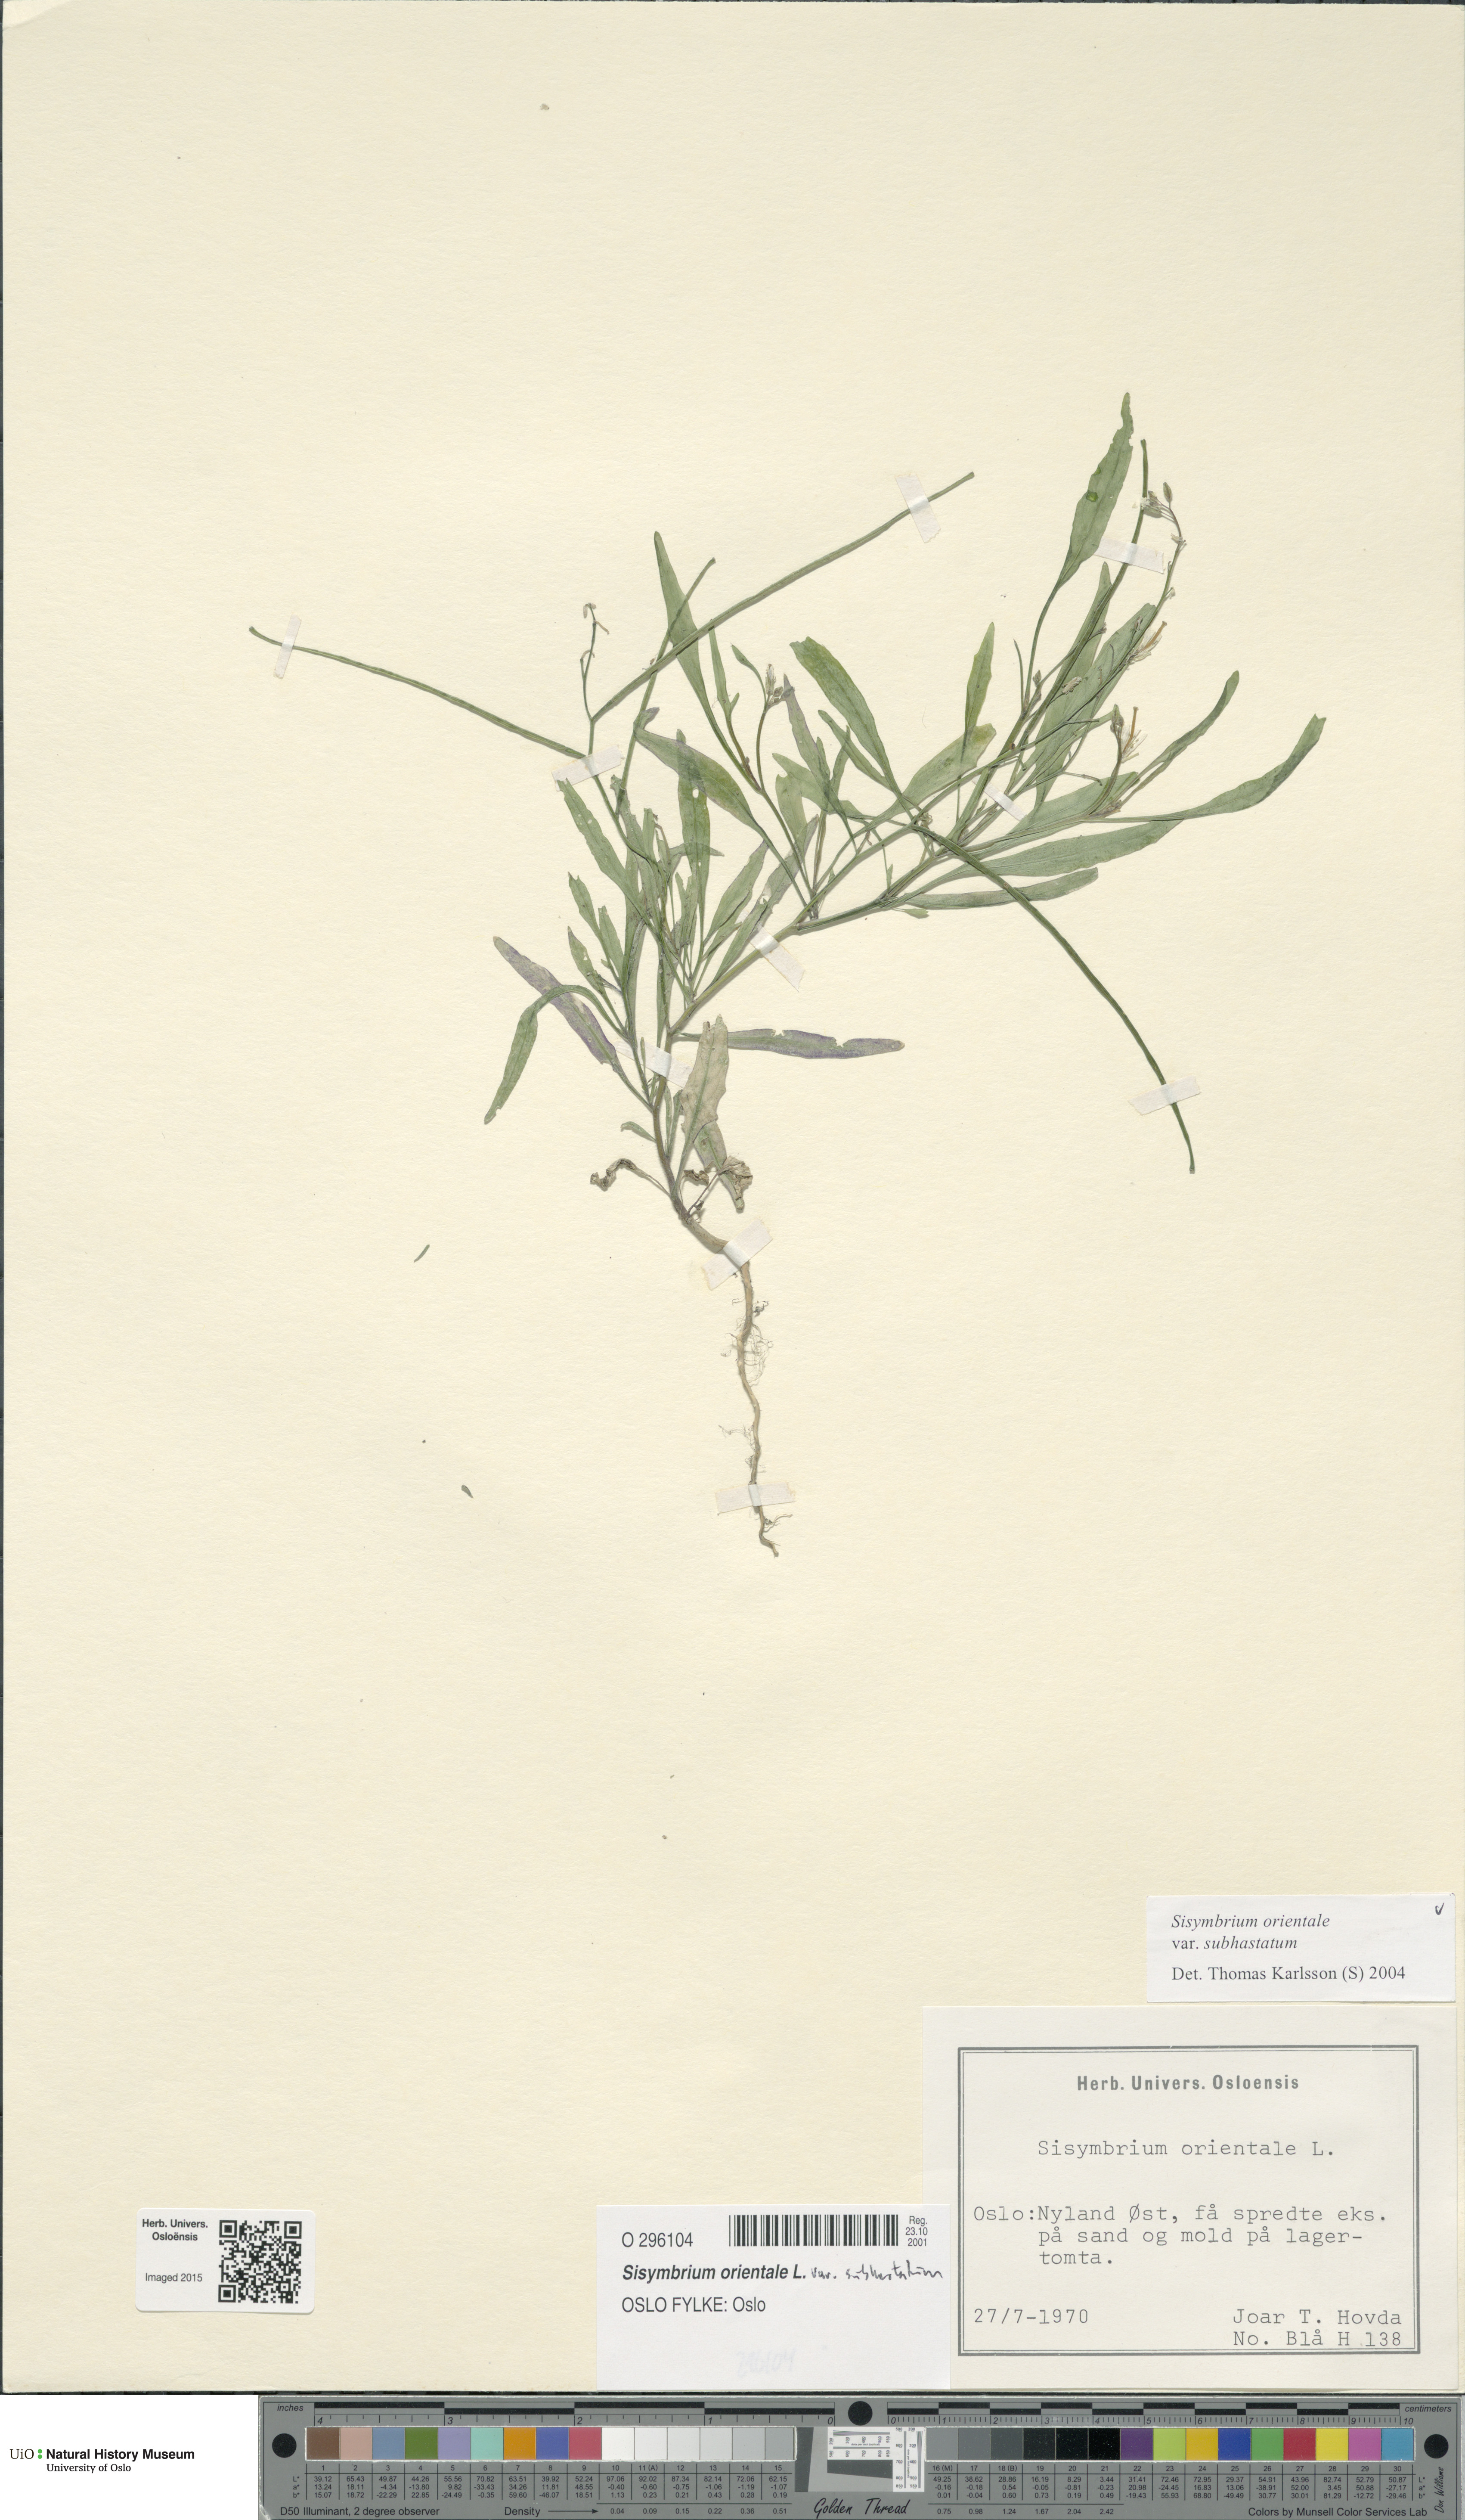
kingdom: Plantae
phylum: Tracheophyta
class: Magnoliopsida
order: Brassicales
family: Brassicaceae
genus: Sisymbrium
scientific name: Sisymbrium orientale
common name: Eastern rocket
